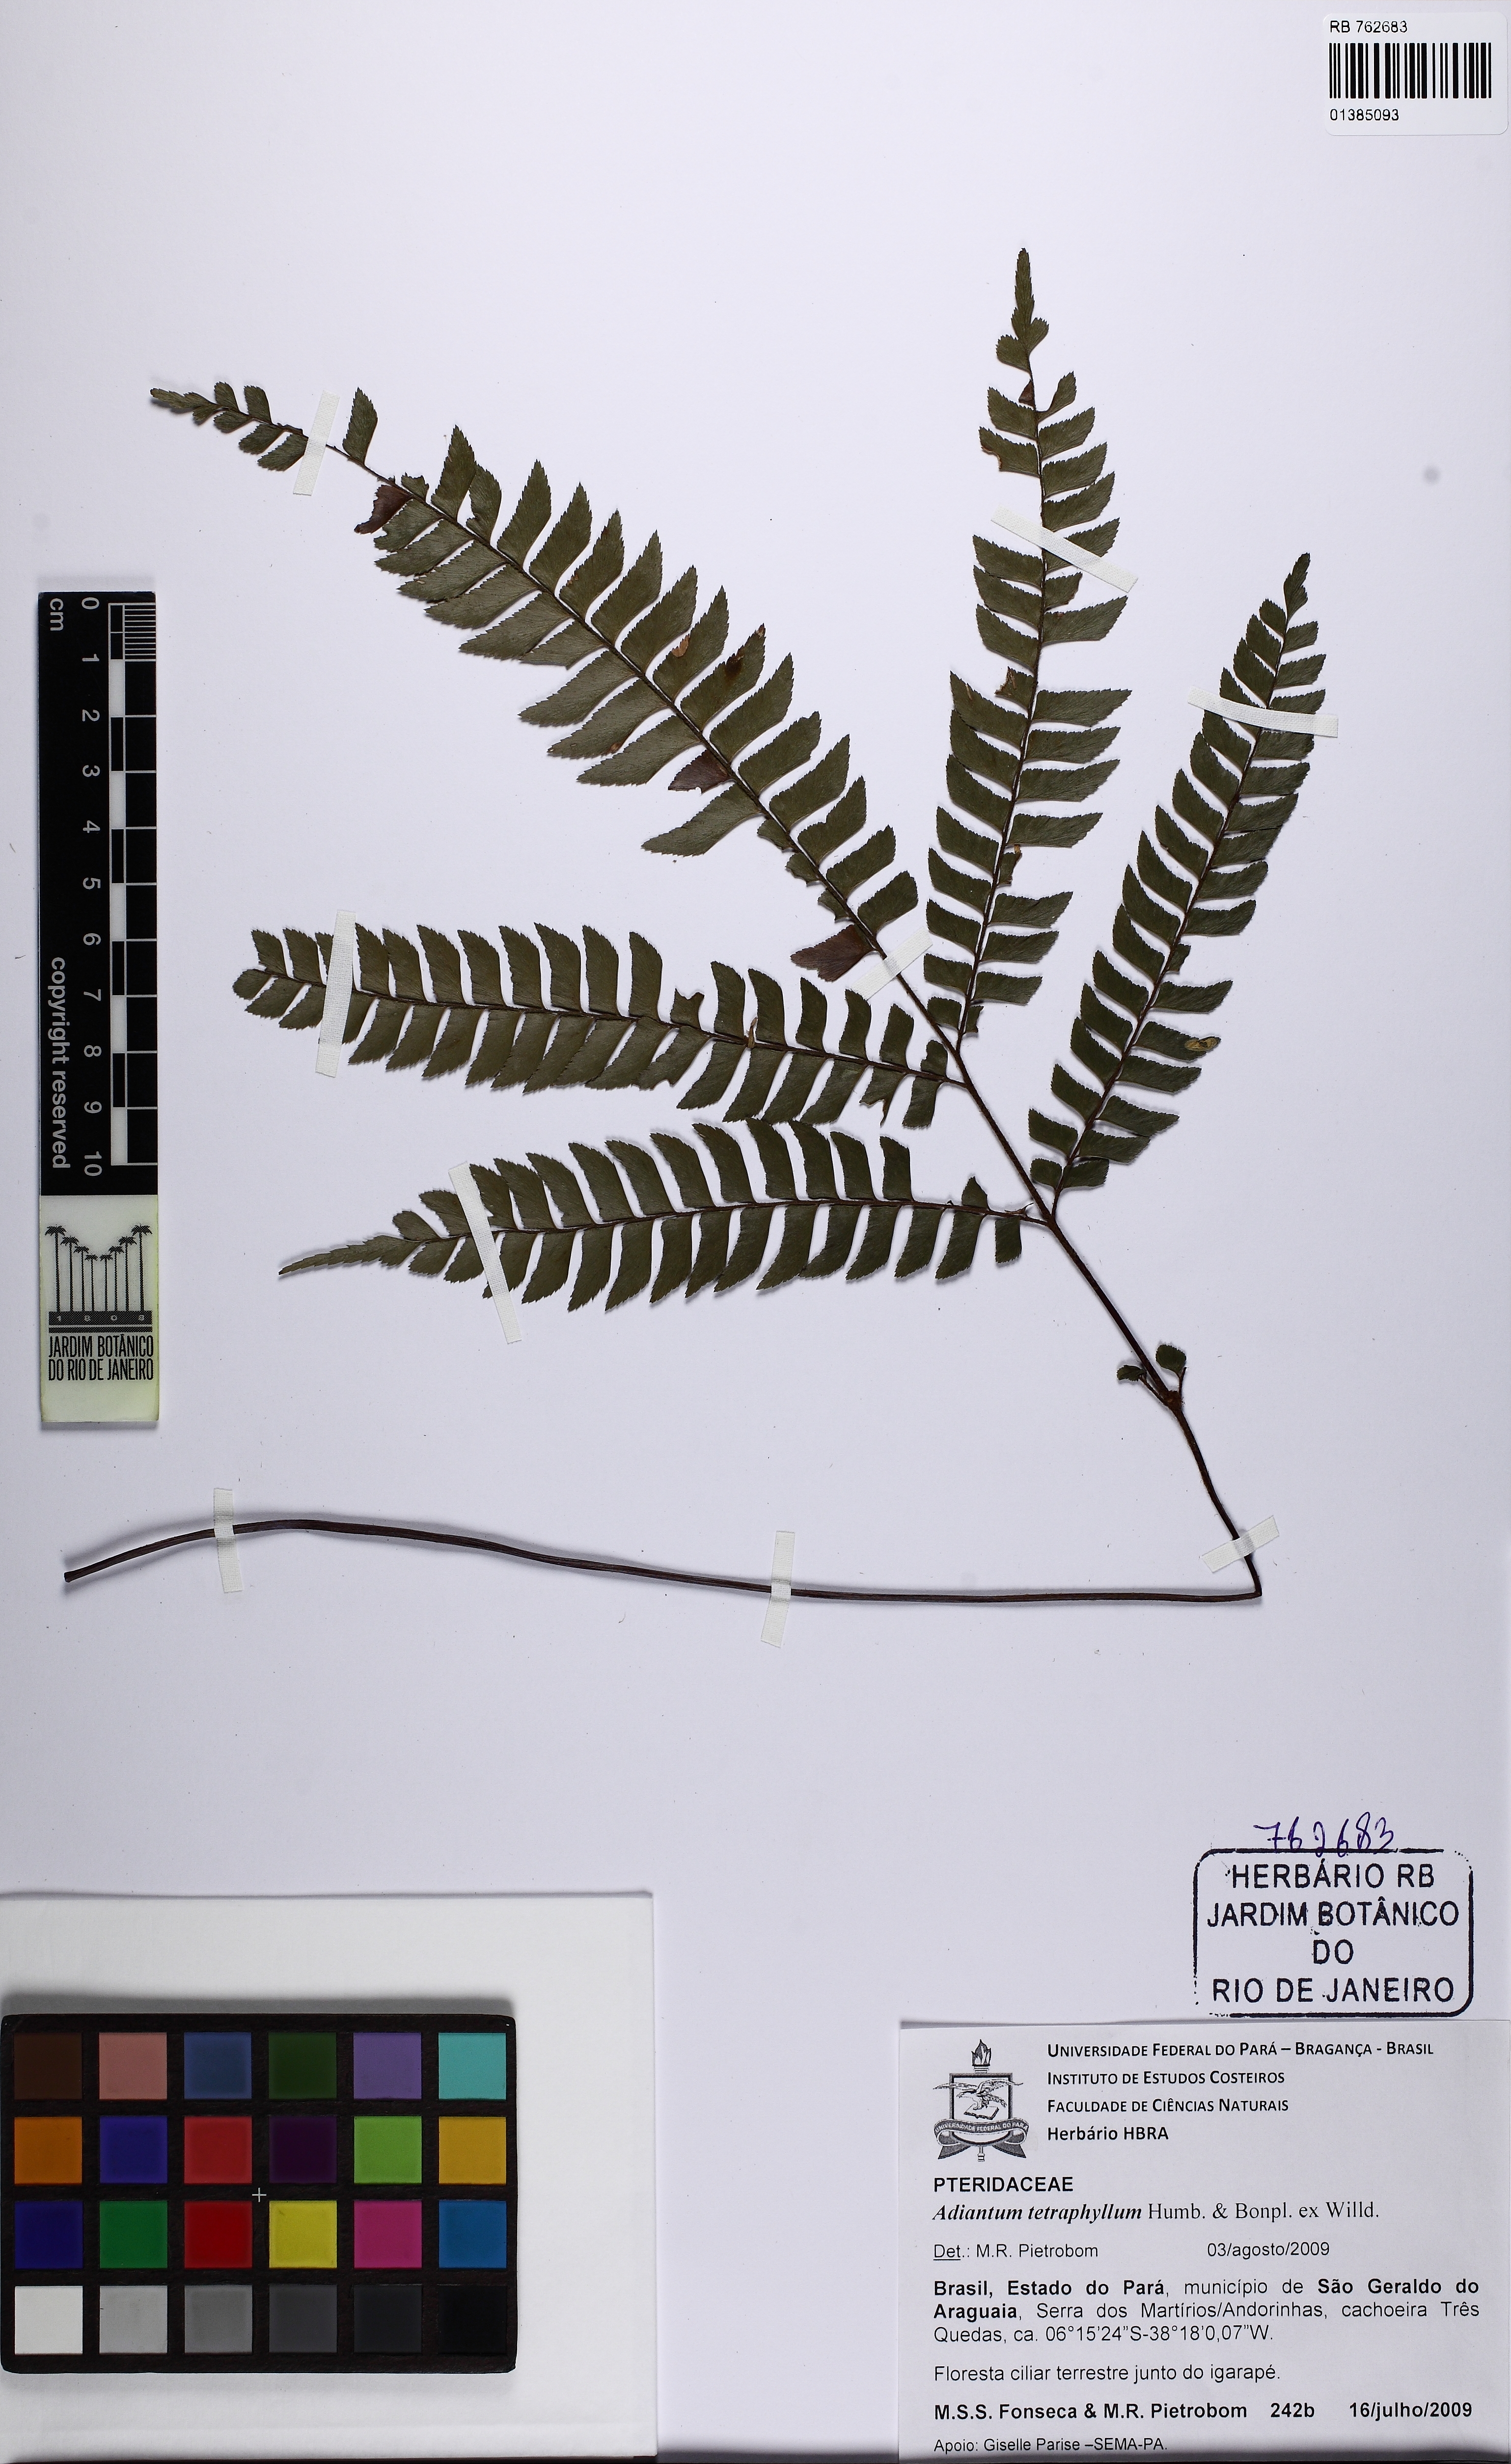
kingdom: Plantae
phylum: Tracheophyta
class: Polypodiopsida
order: Polypodiales
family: Pteridaceae
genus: Adiantum
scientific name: Adiantum tetraphyllum
